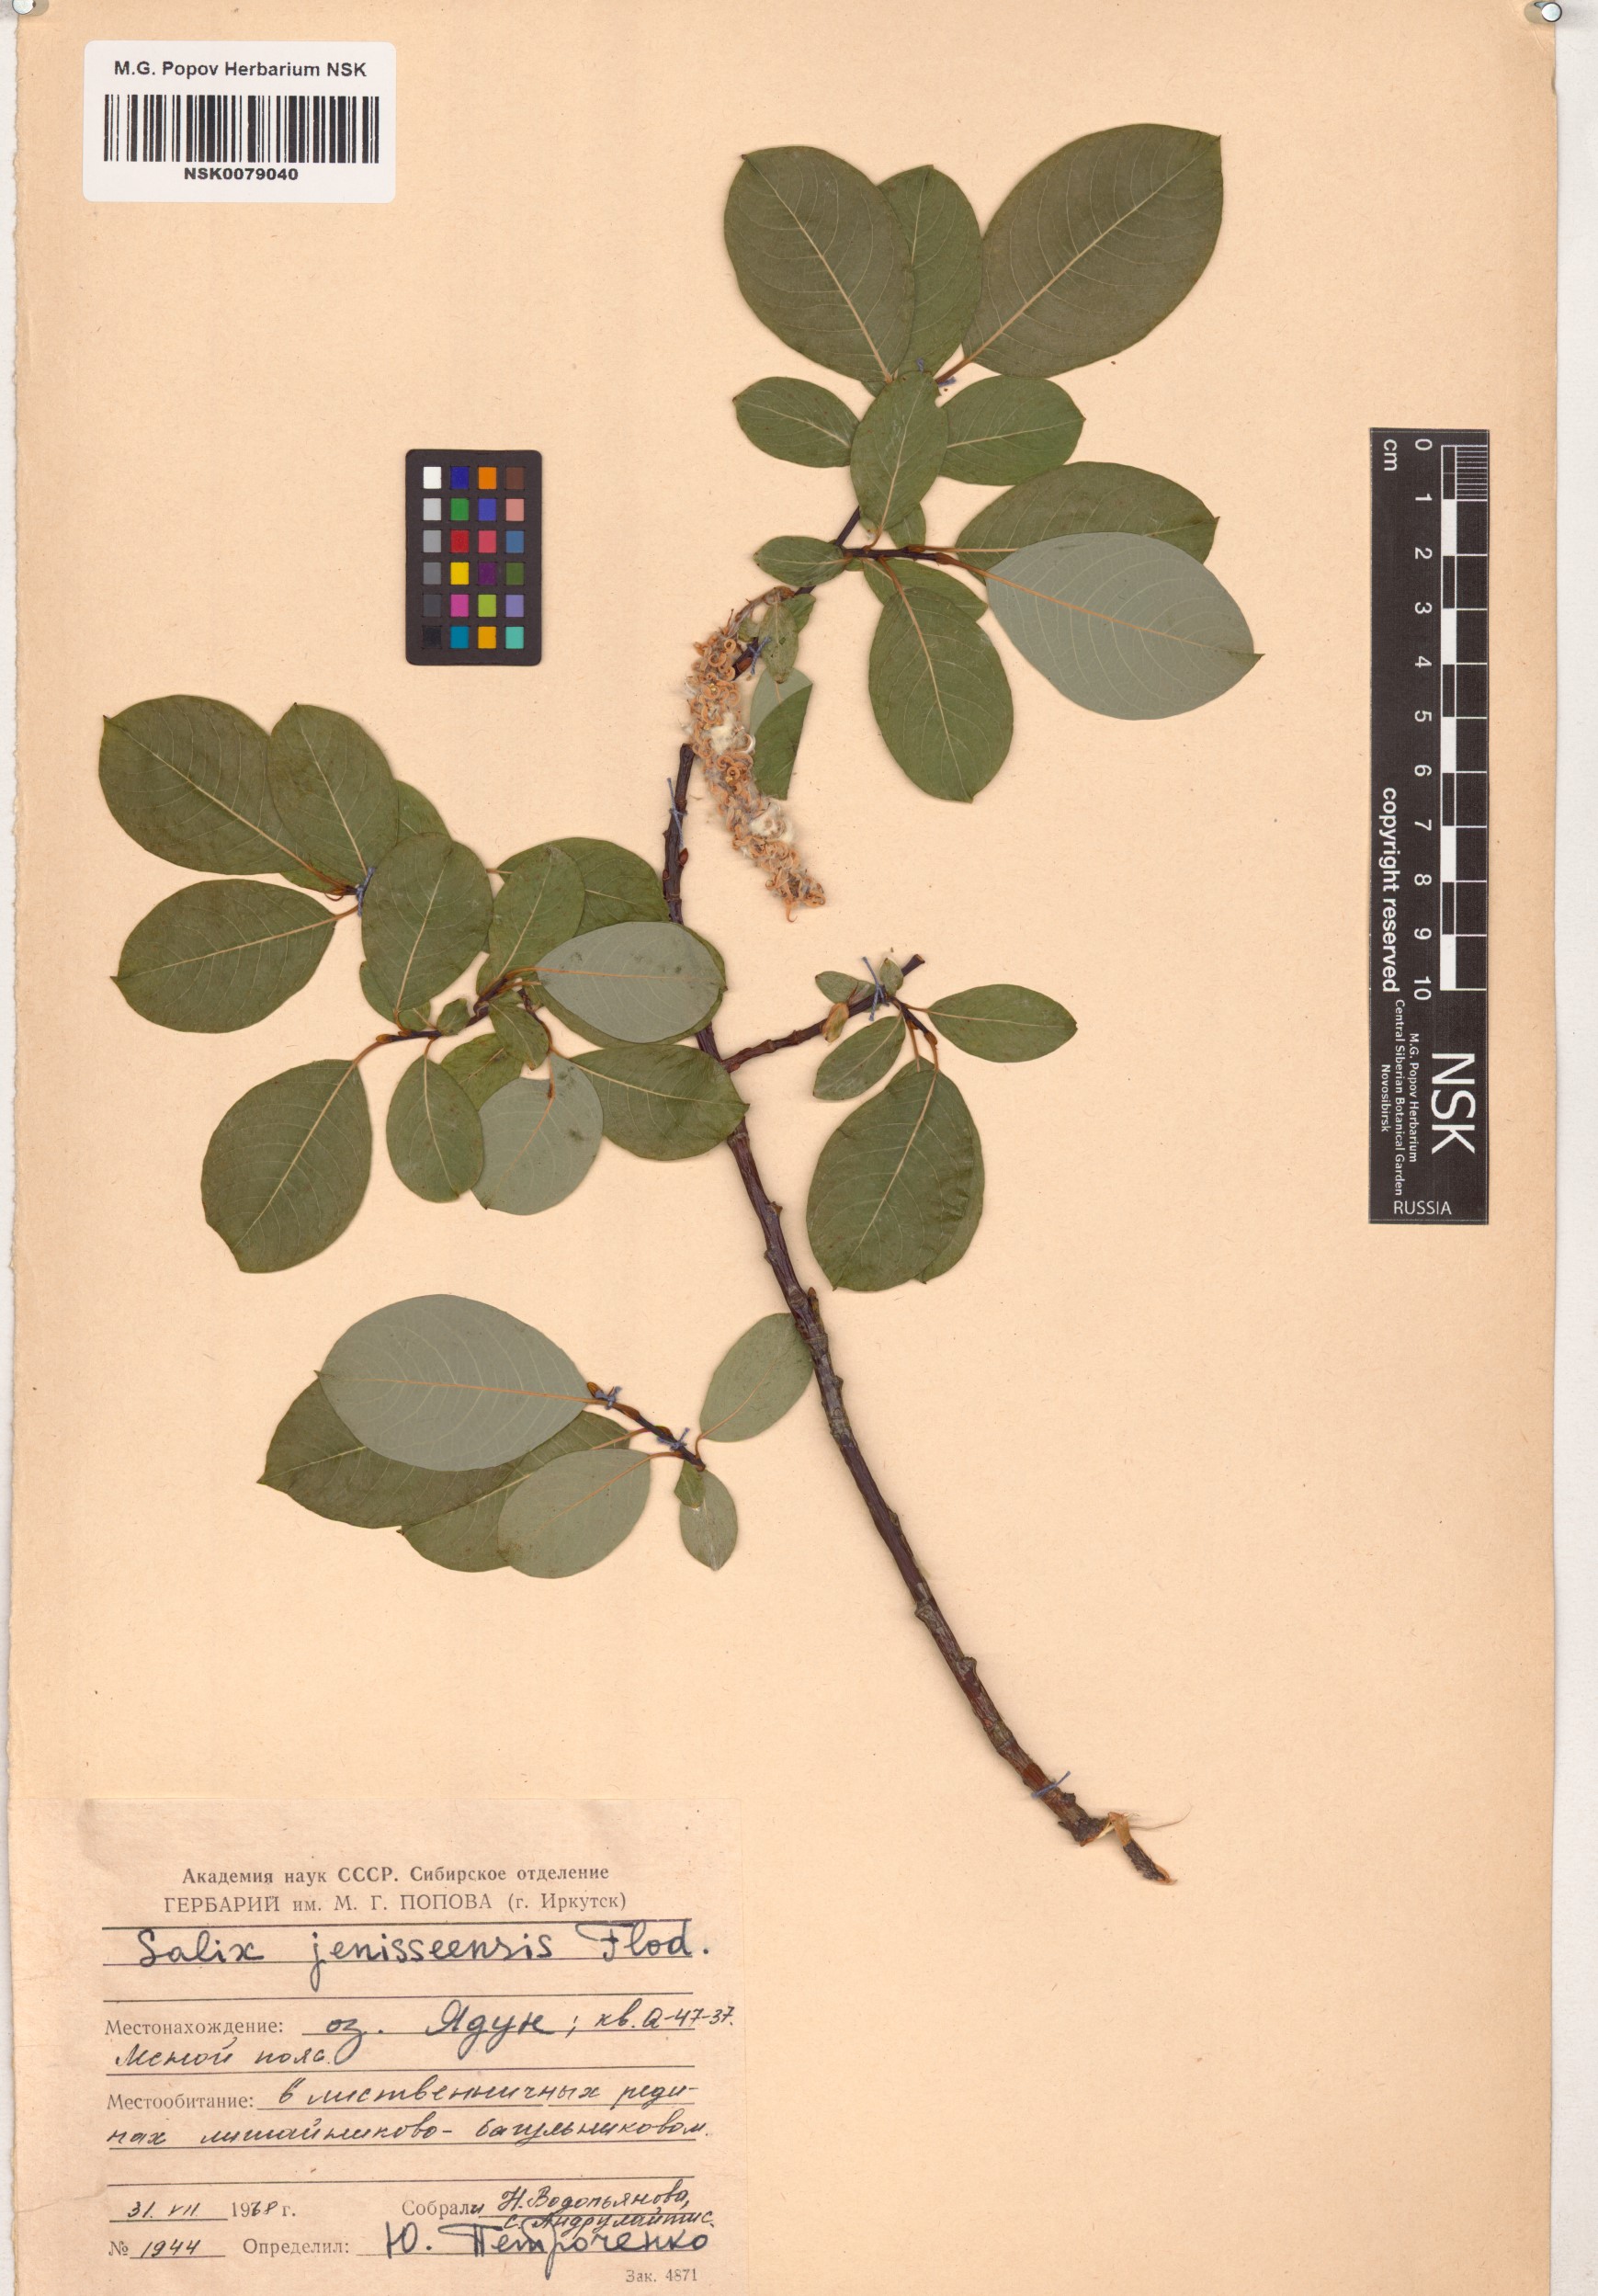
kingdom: Plantae
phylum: Tracheophyta
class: Magnoliopsida
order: Malpighiales
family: Salicaceae
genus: Salix
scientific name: Salix jenisseensis
